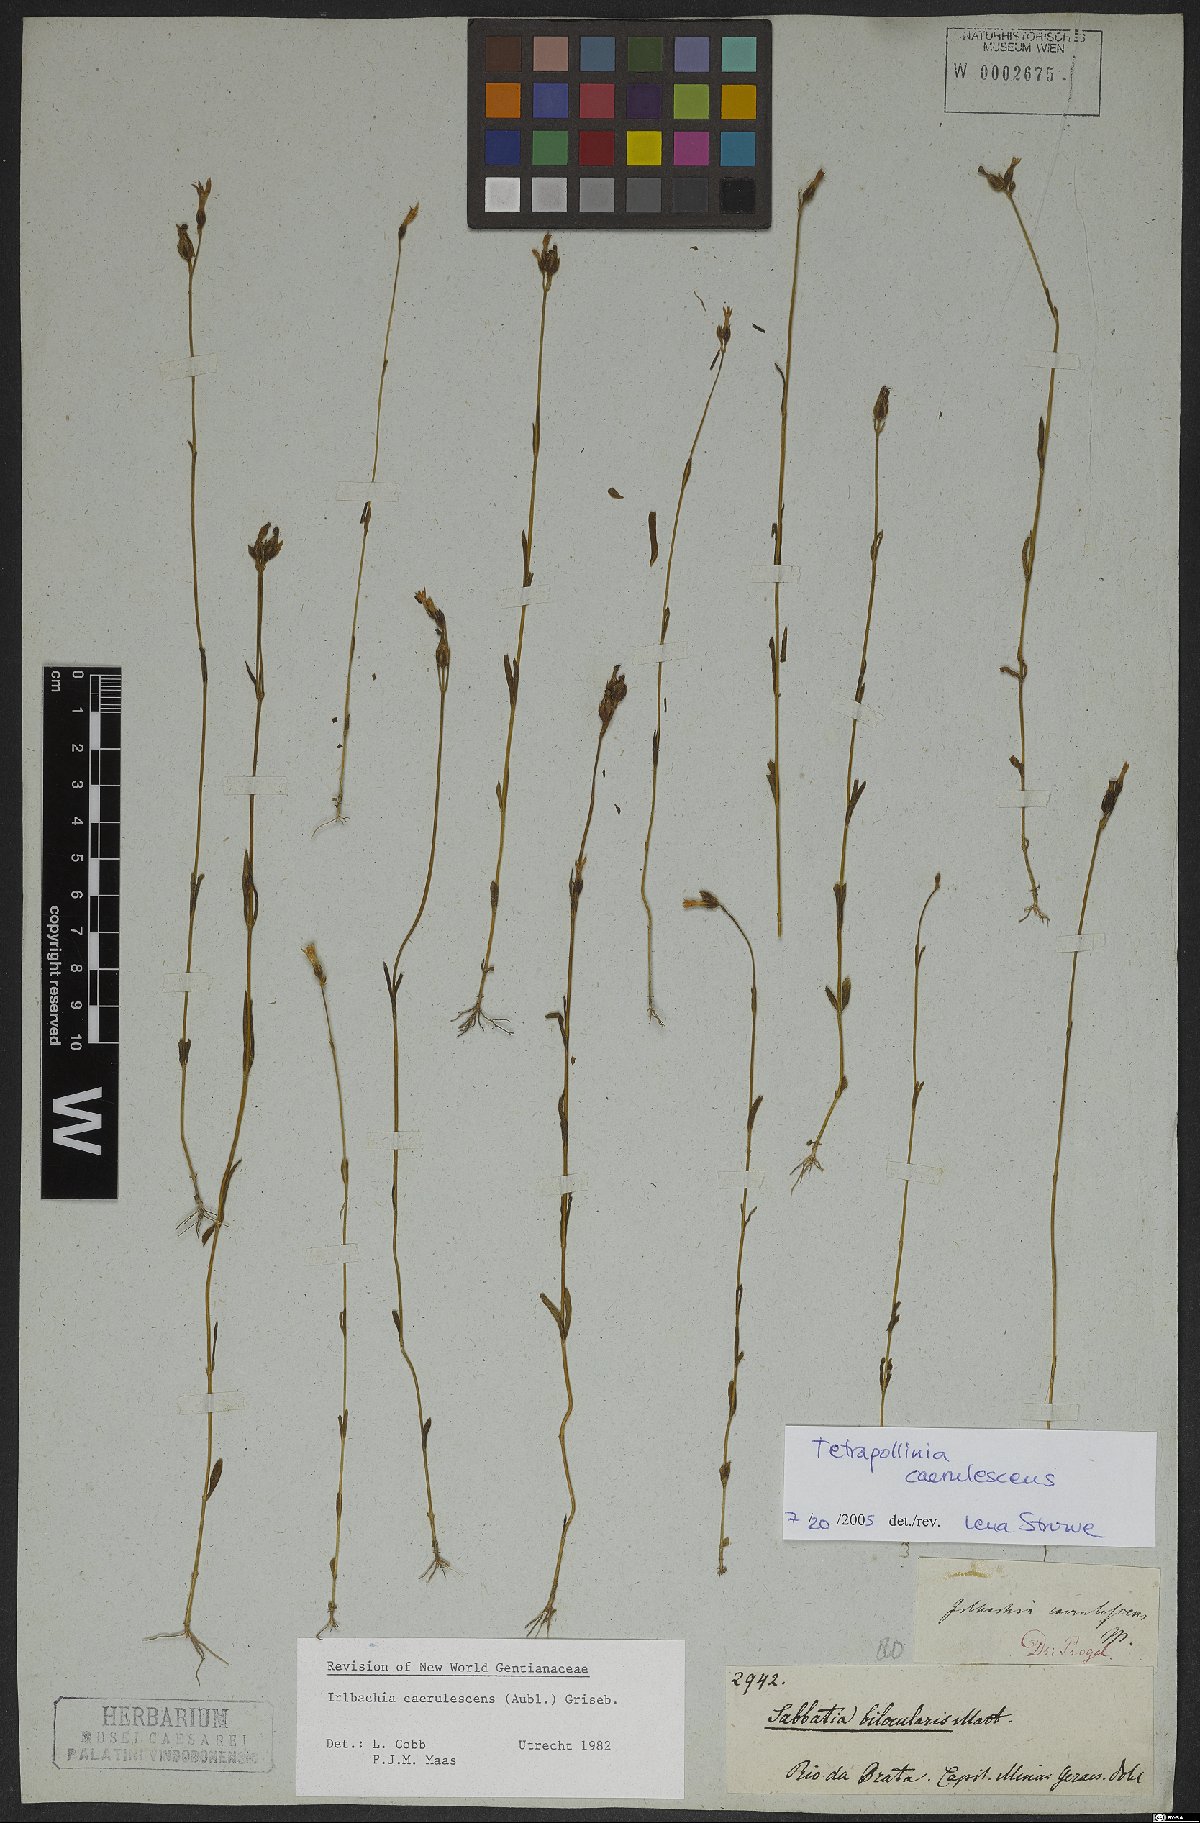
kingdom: Plantae
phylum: Tracheophyta
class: Magnoliopsida
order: Gentianales
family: Gentianaceae
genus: Tetrapollinia
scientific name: Tetrapollinia caerulescens
